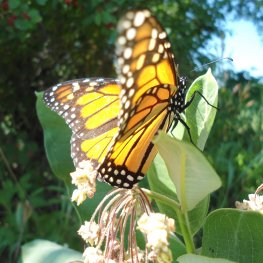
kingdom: Animalia
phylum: Arthropoda
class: Insecta
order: Lepidoptera
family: Nymphalidae
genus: Danaus
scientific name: Danaus plexippus
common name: Monarch
